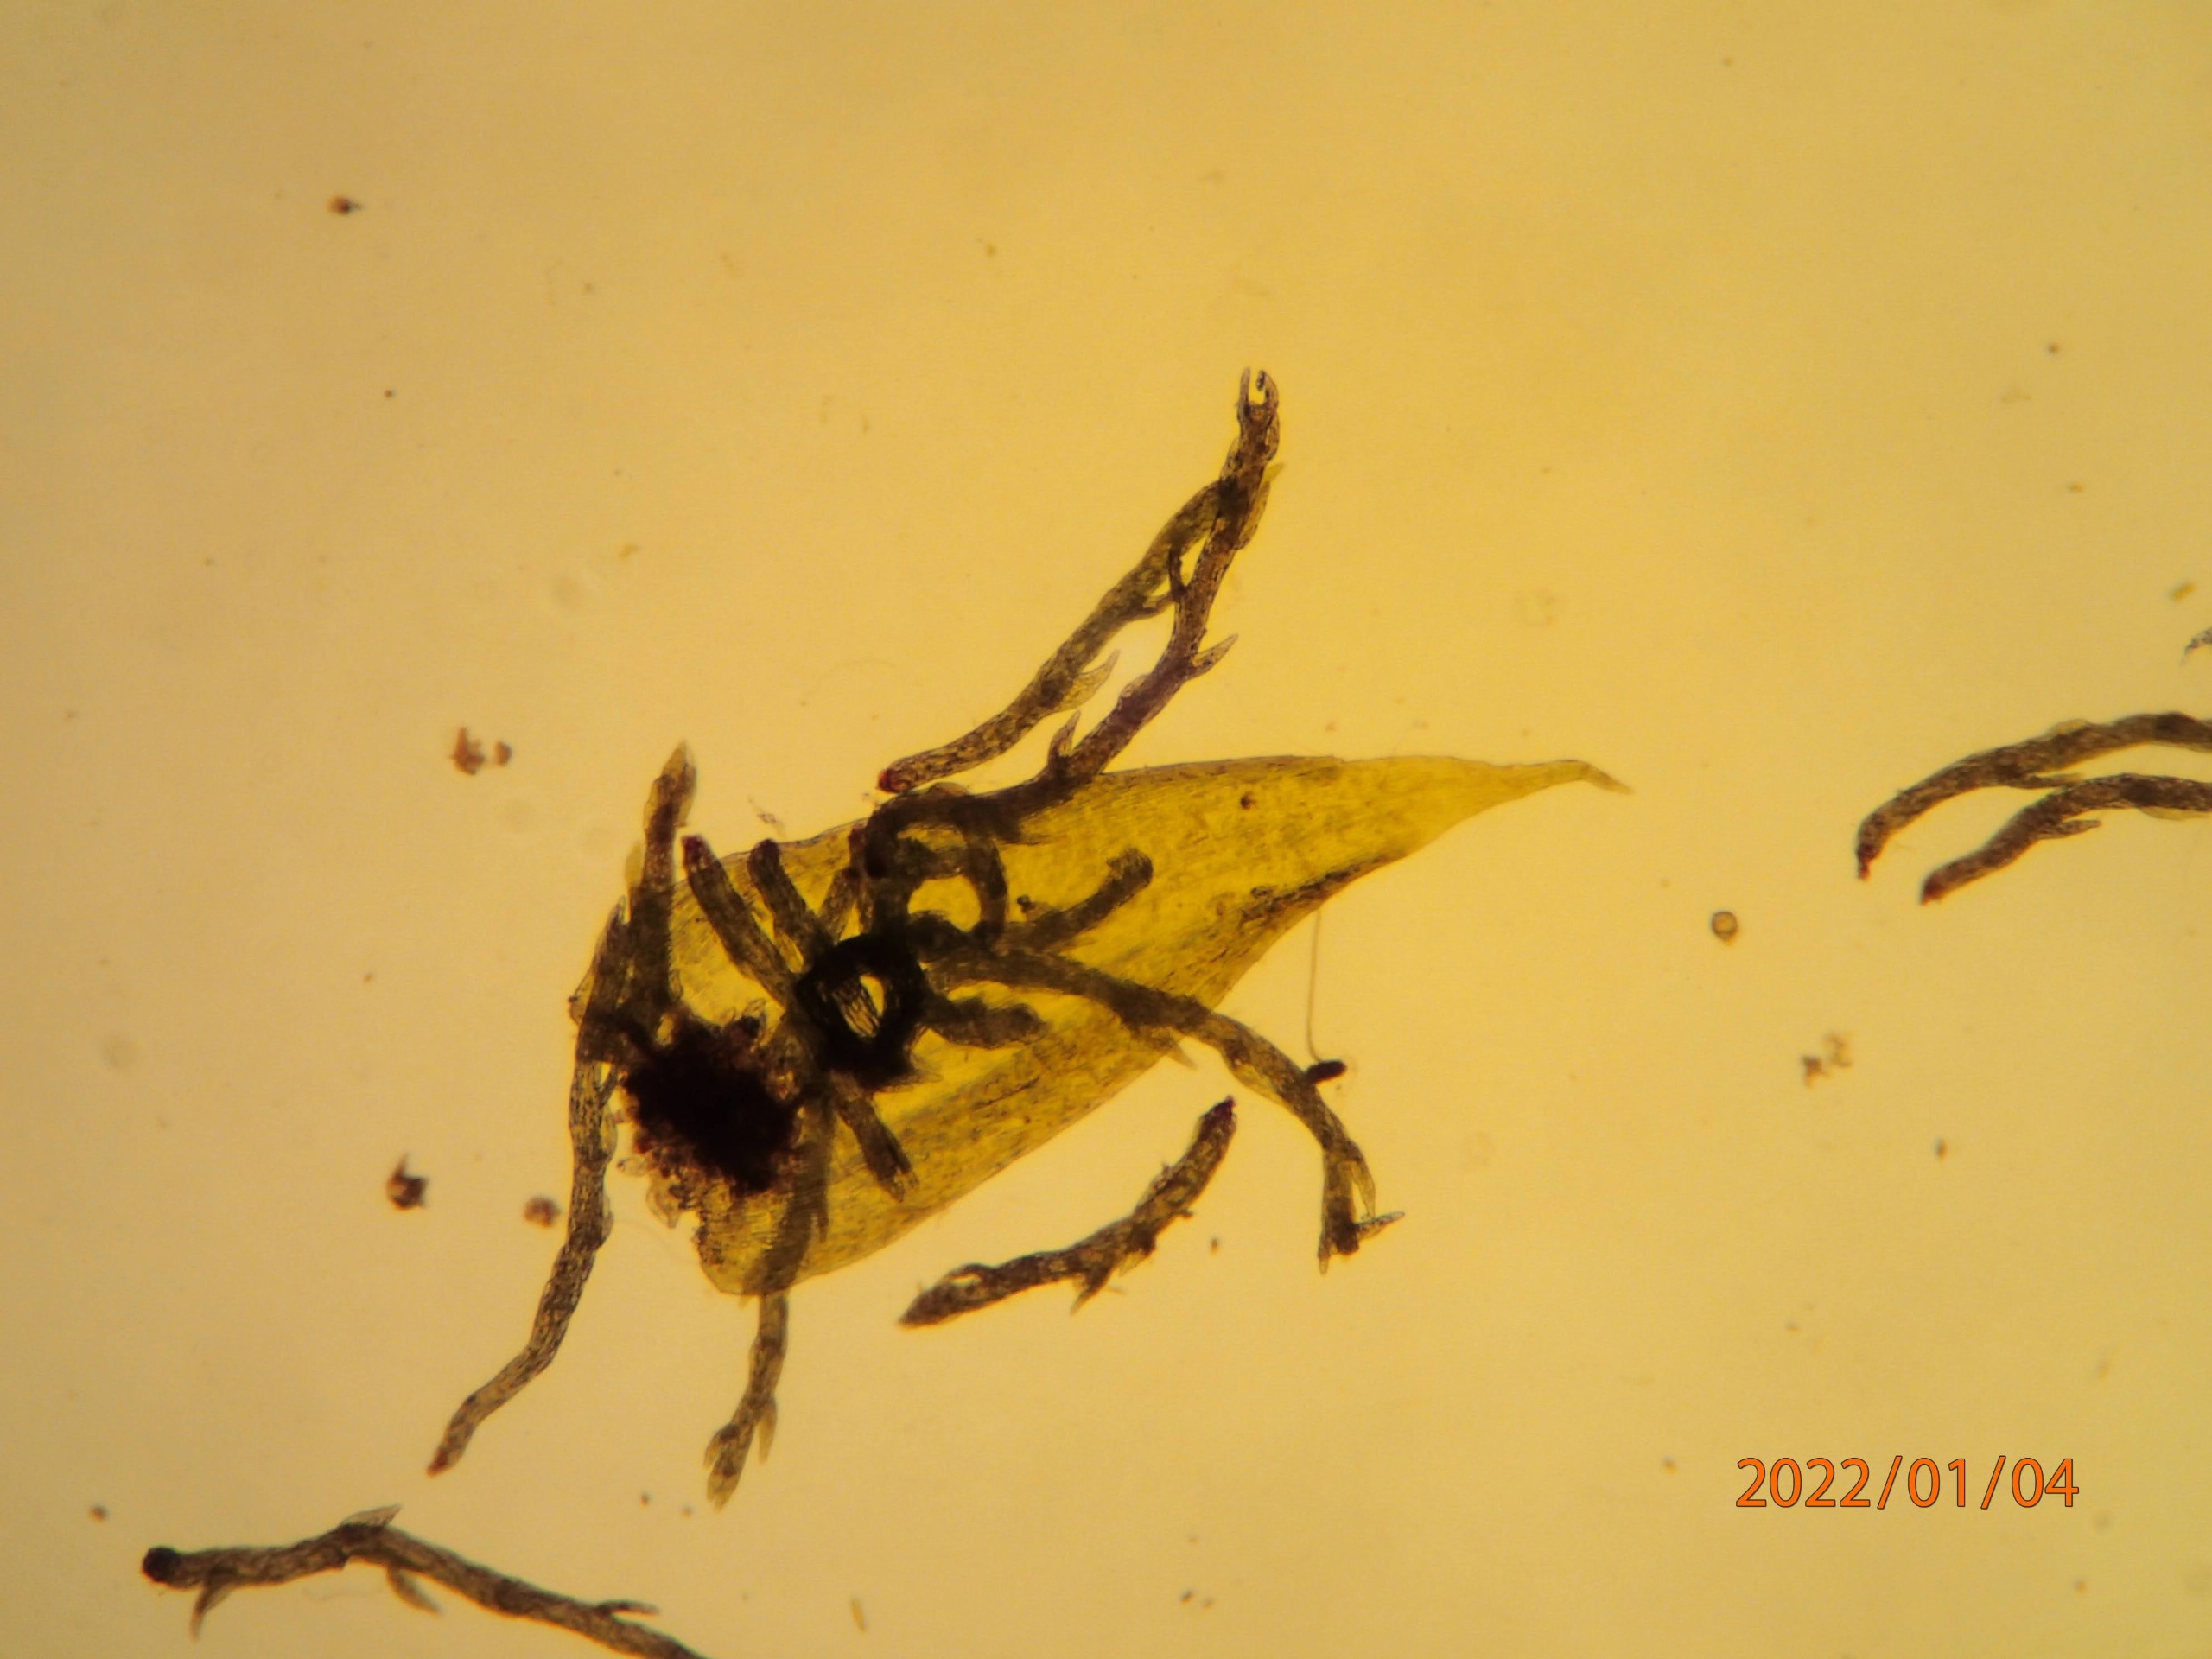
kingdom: Plantae
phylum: Bryophyta
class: Bryopsida
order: Hypnales
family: Plagiotheciaceae
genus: Pseudotaxiphyllum
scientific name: Pseudotaxiphyllum elegans
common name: Skinnende ynglegren
